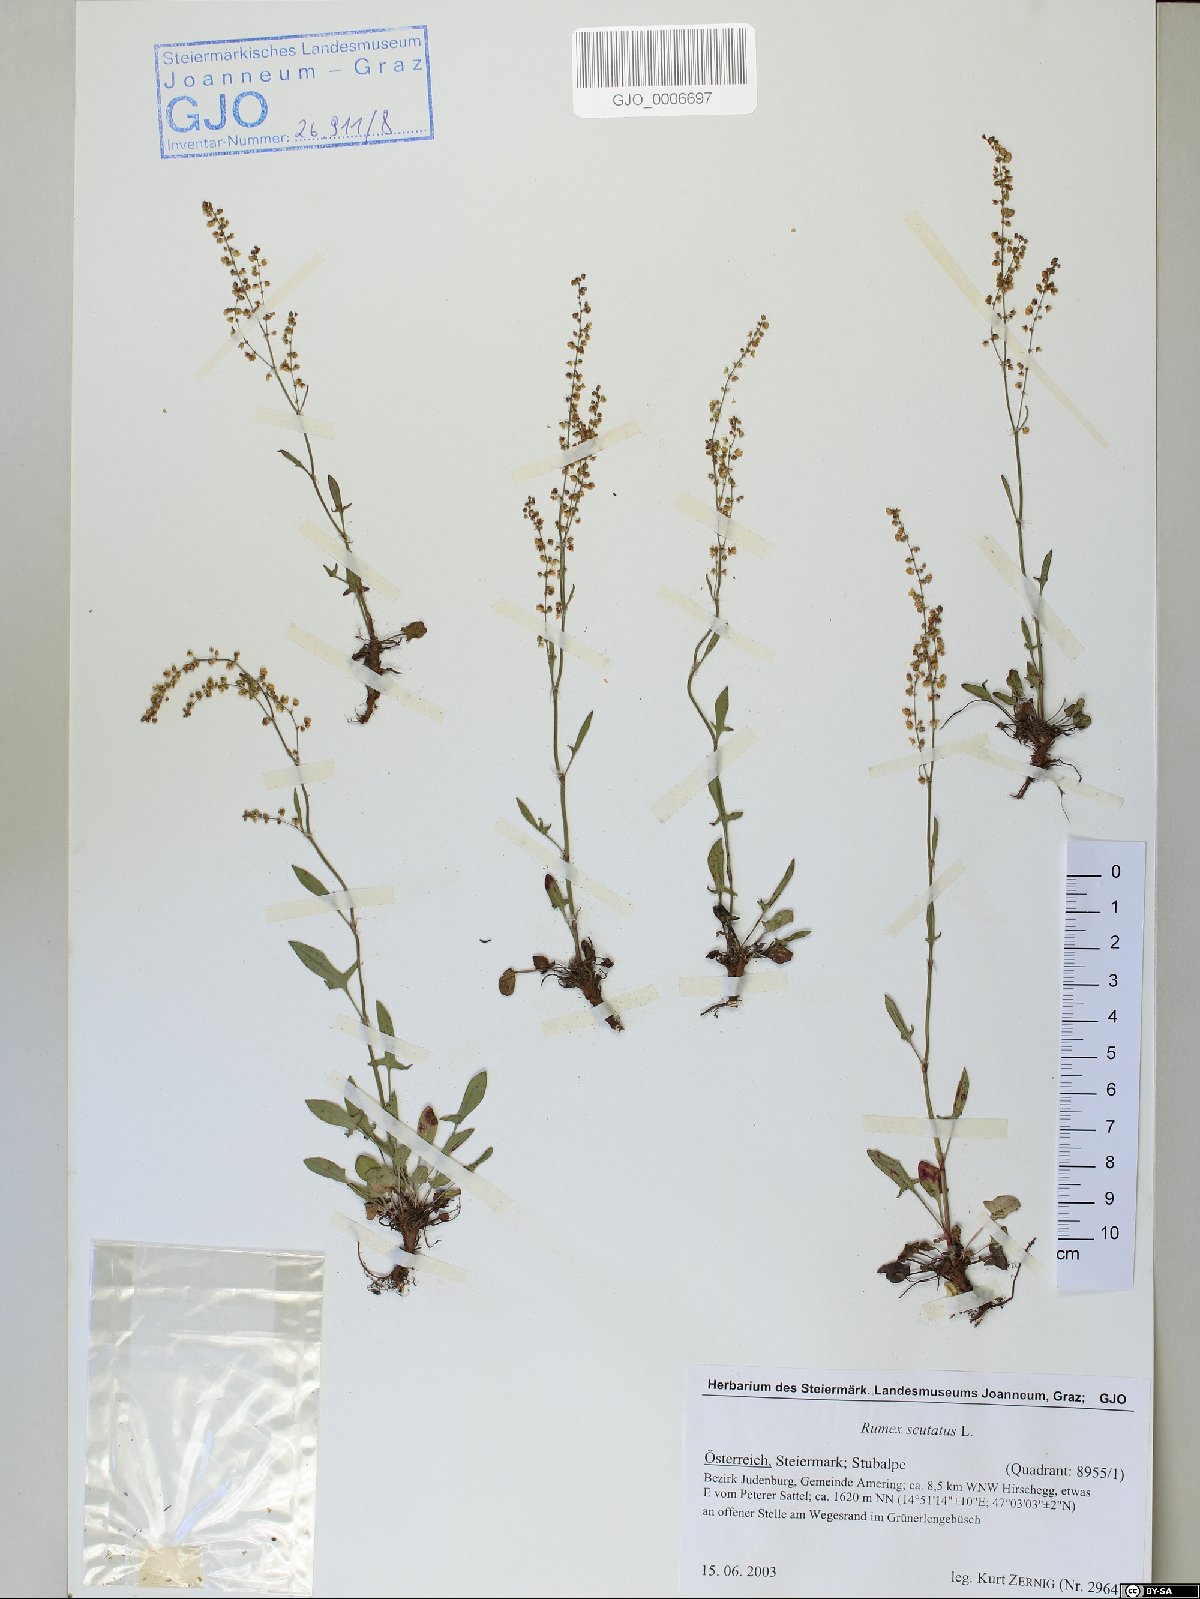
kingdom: Plantae
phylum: Tracheophyta
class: Magnoliopsida
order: Caryophyllales
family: Polygonaceae
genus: Rumex
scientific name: Rumex scutatus
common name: French sorrel
